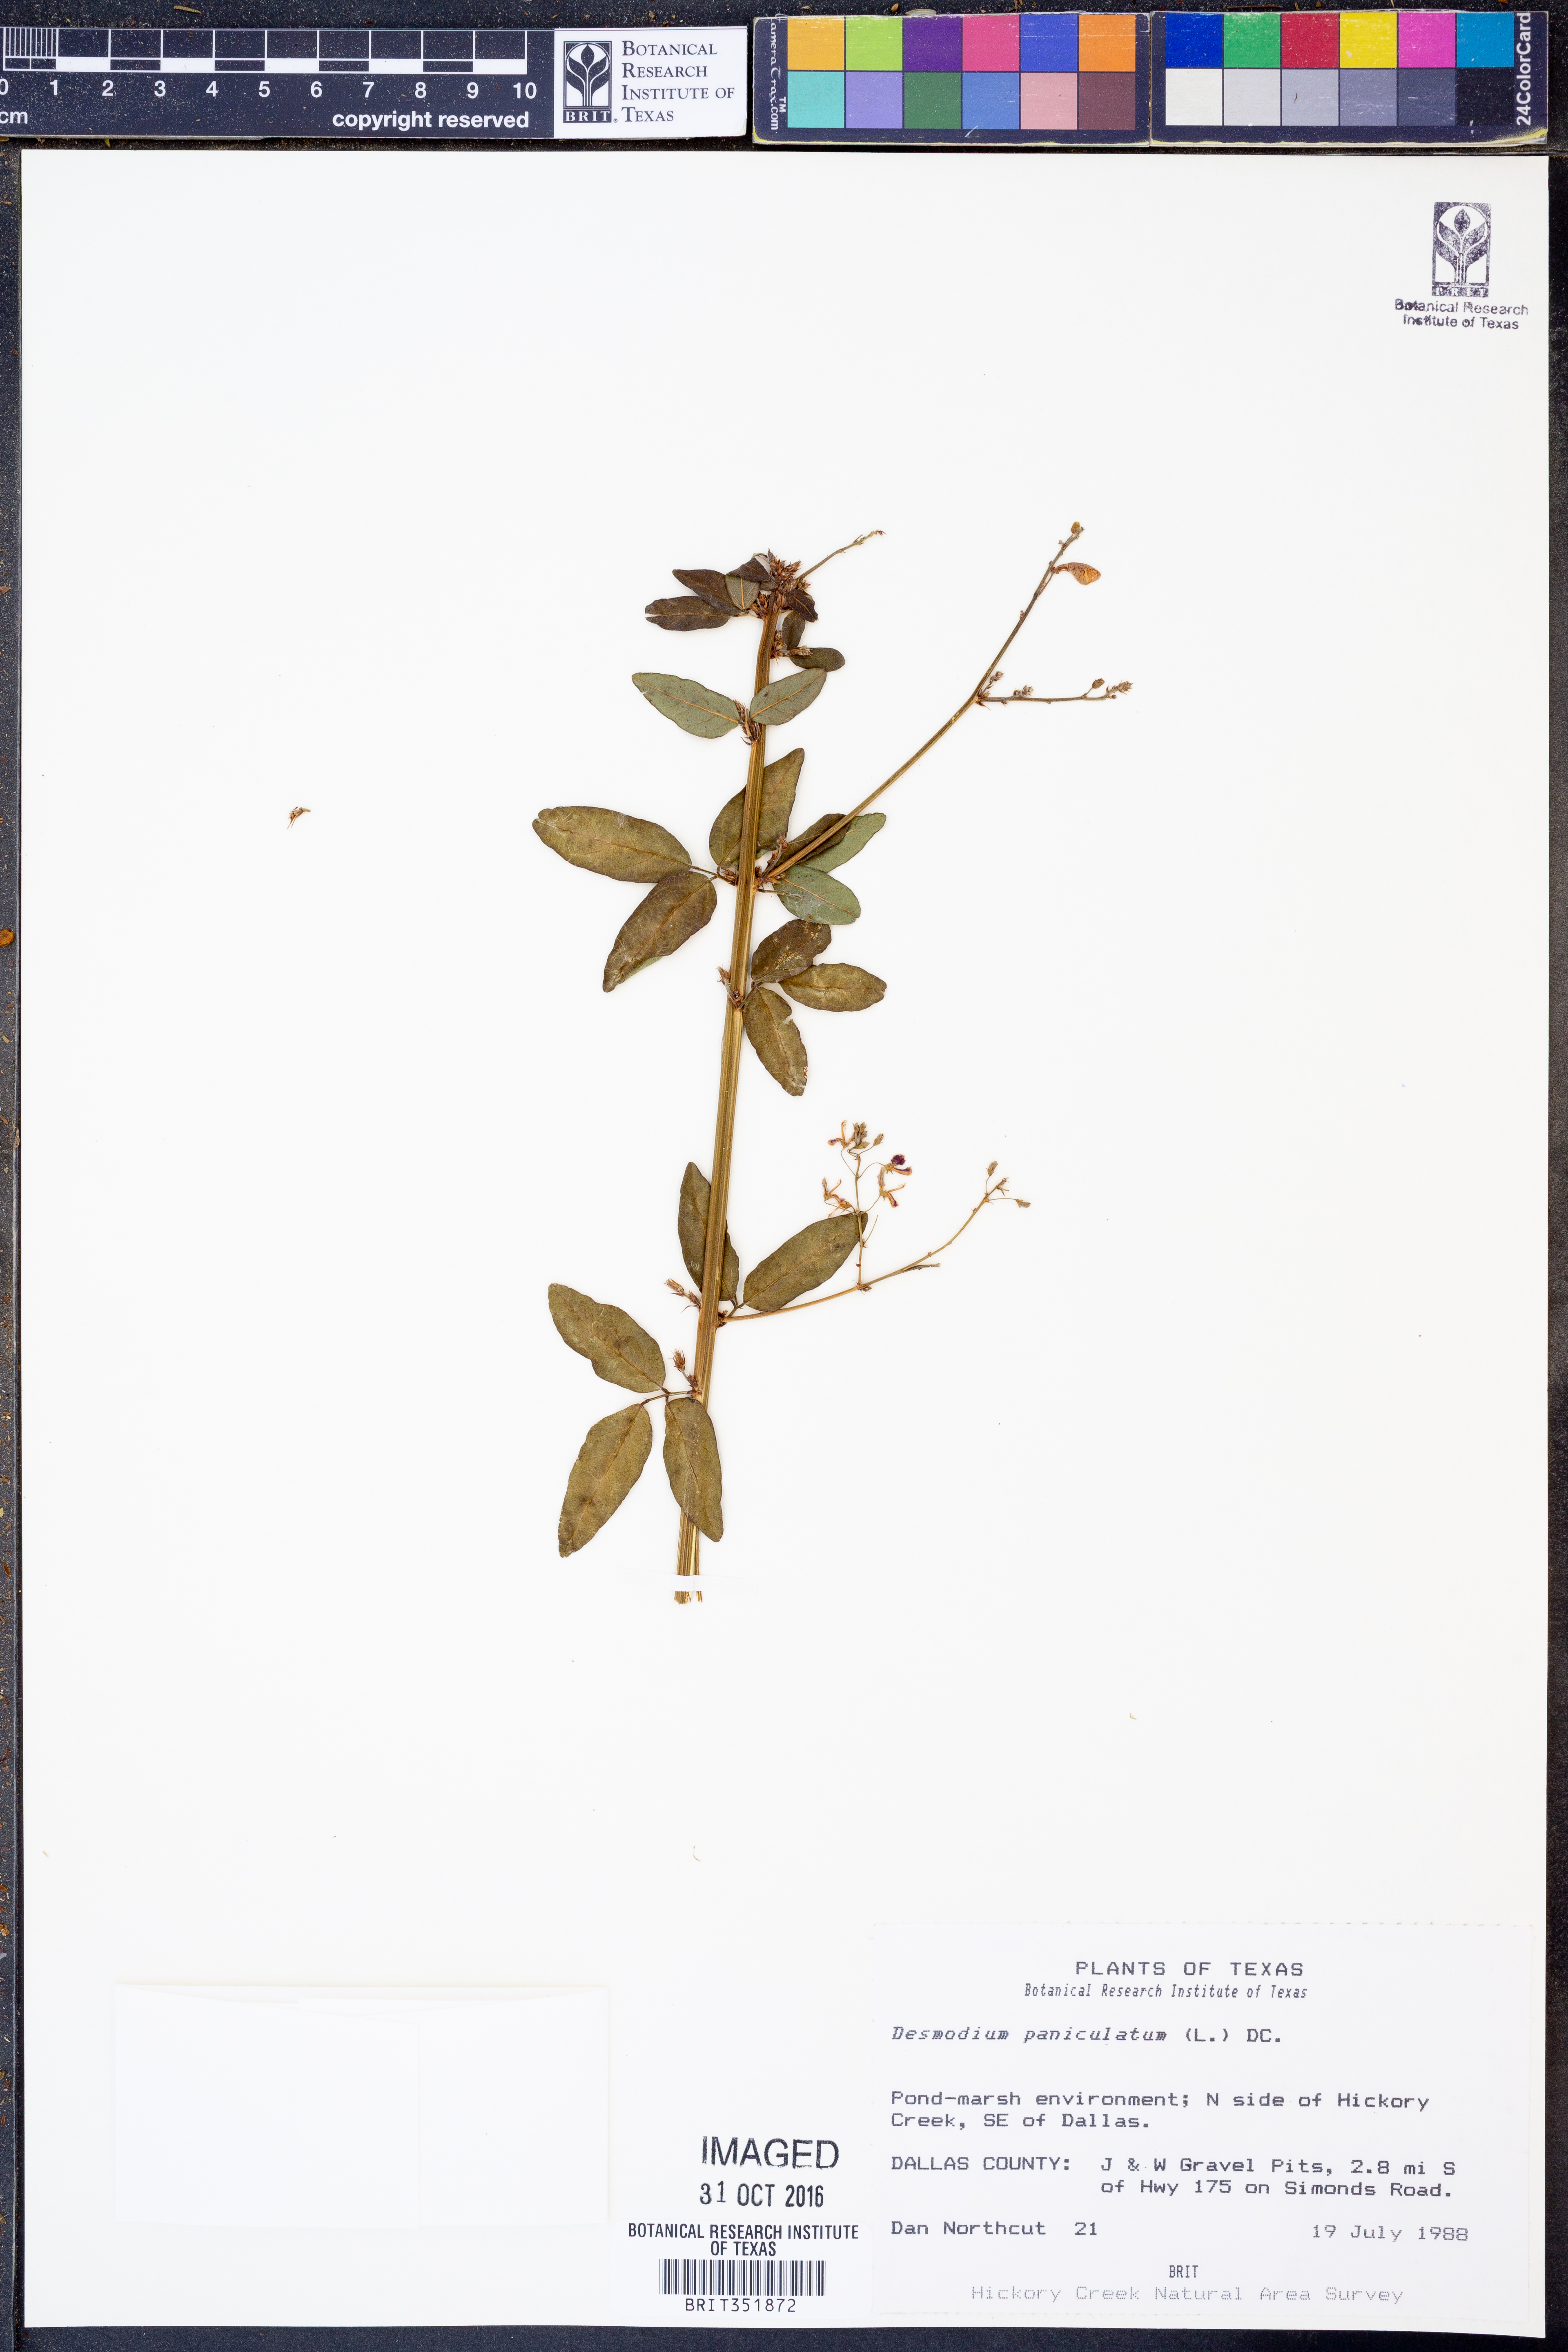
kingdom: Plantae
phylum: Tracheophyta
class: Magnoliopsida
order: Fabales
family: Fabaceae
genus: Desmodium
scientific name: Desmodium paniculatum
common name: Panicled tick-clover
